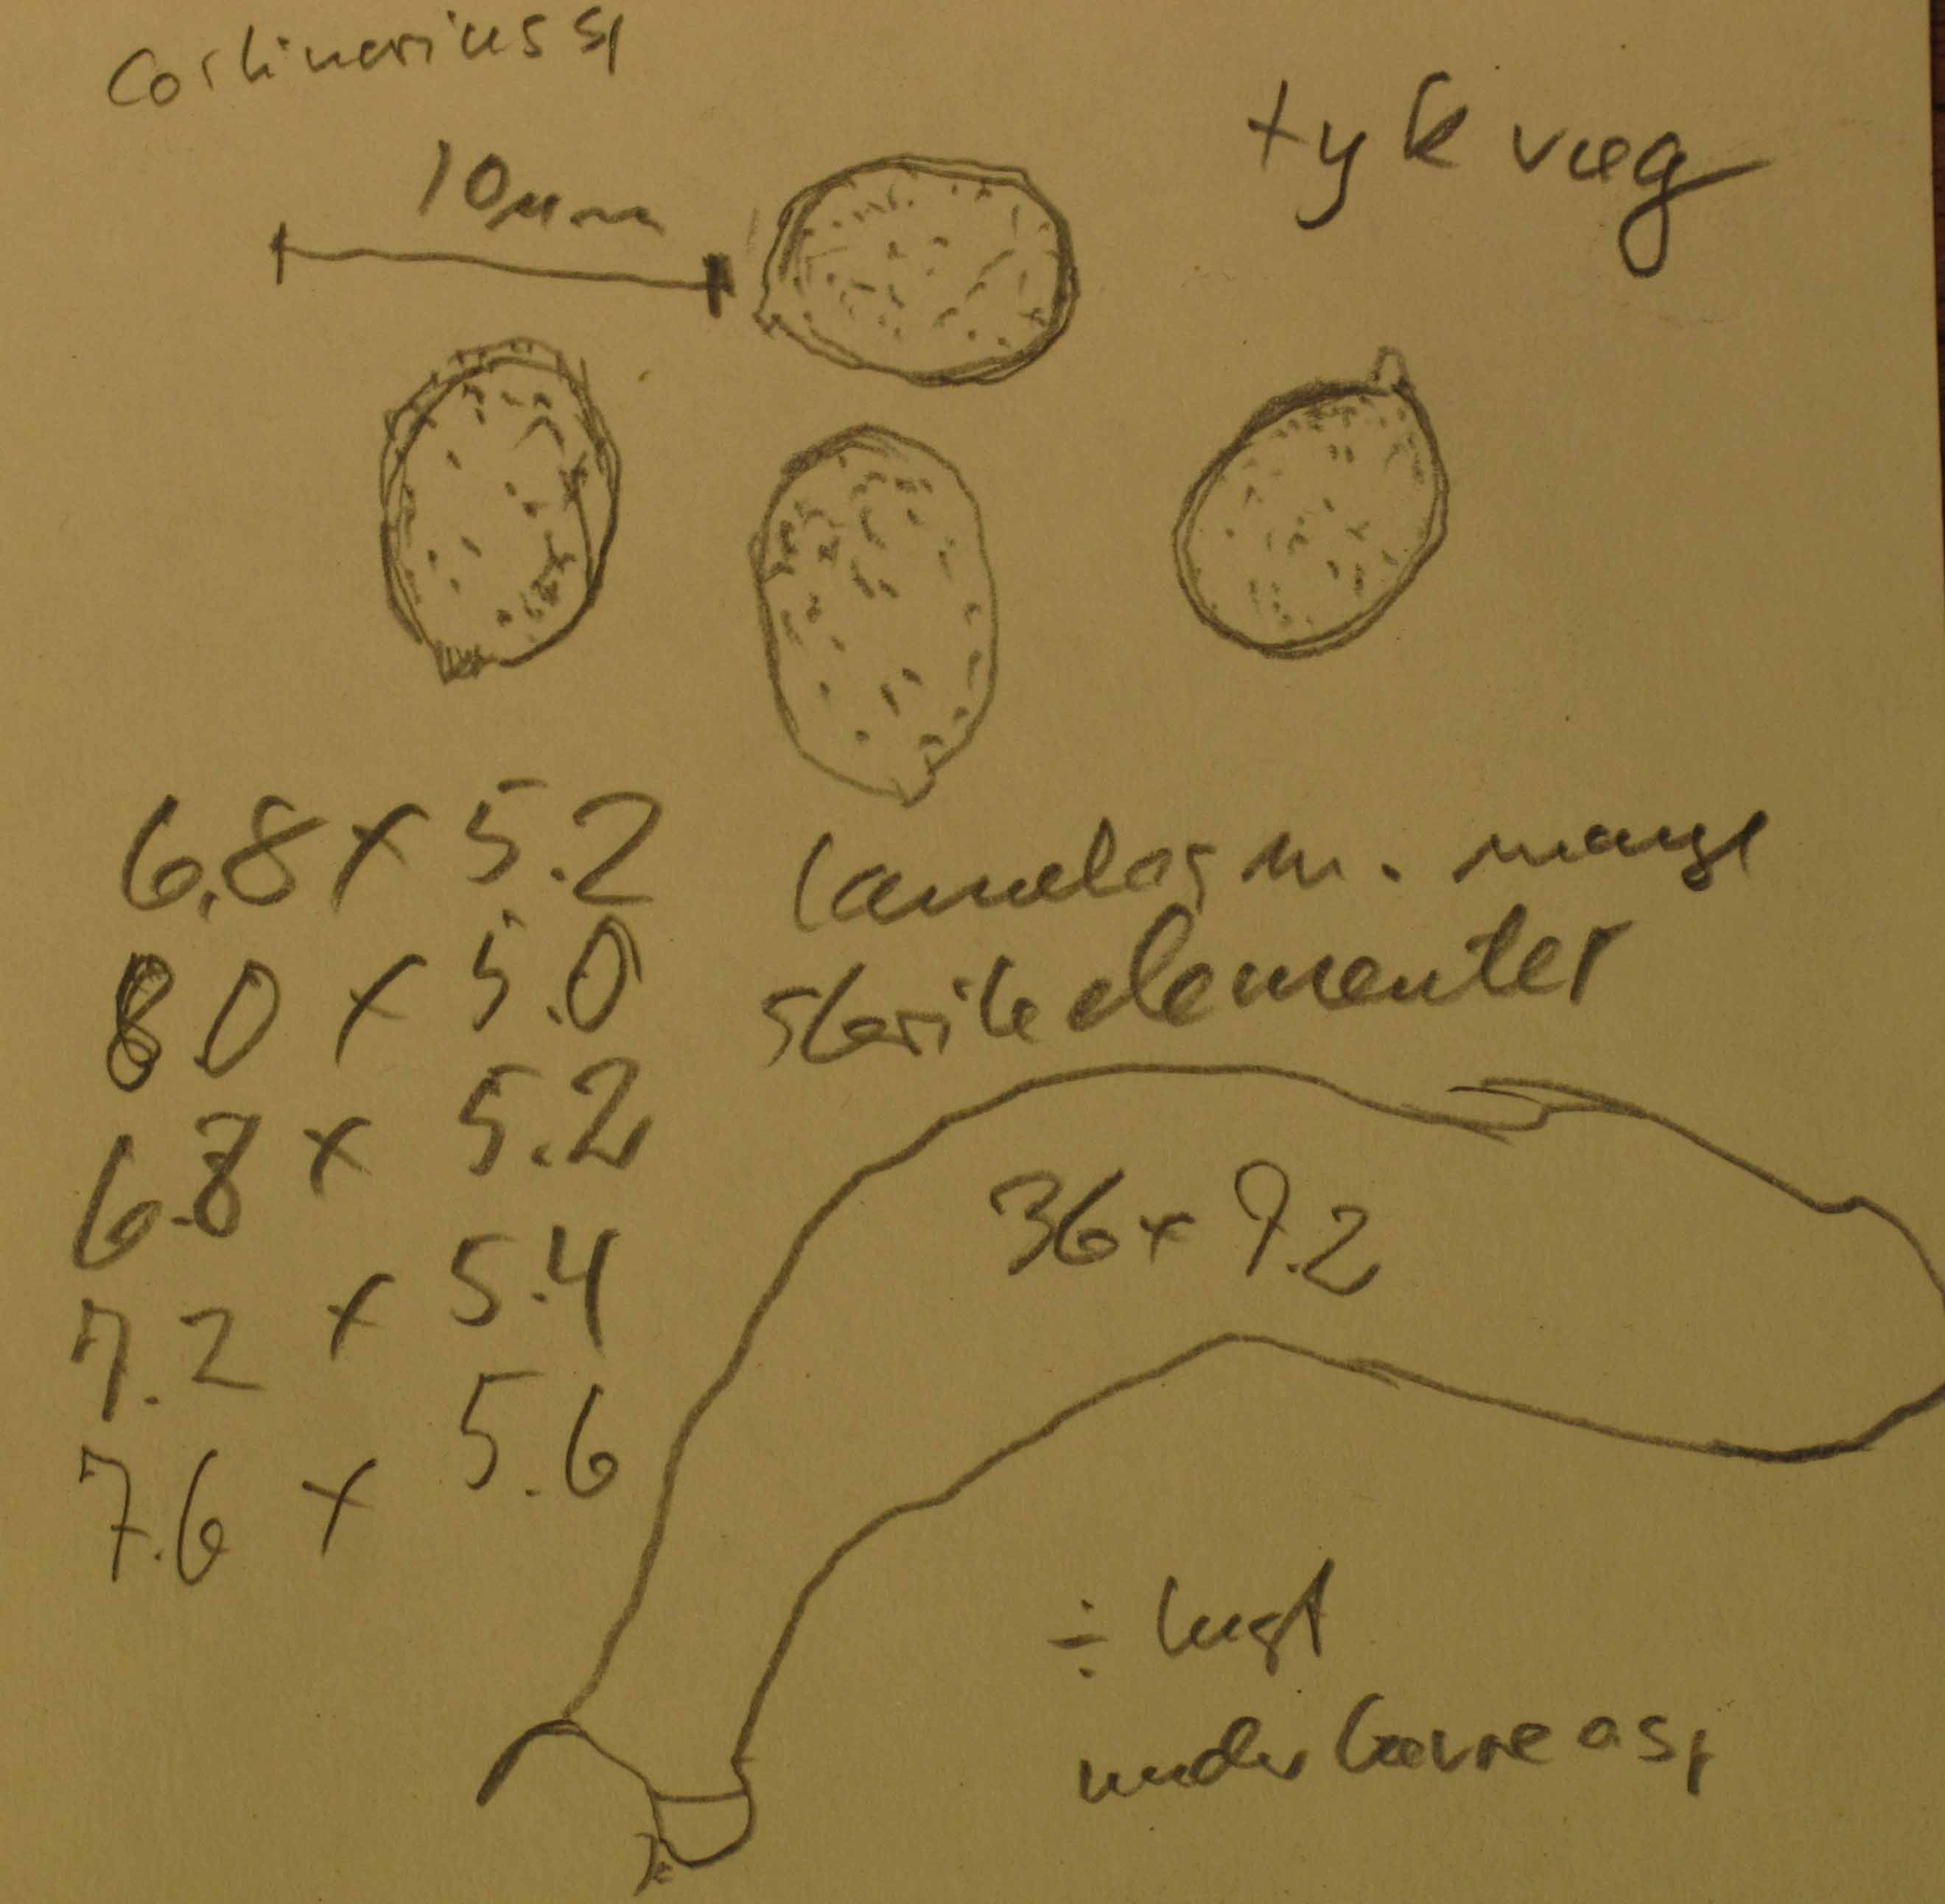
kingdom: Fungi
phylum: Basidiomycota
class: Agaricomycetes
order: Agaricales
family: Cortinariaceae
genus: Cortinarius
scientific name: Cortinarius raphanoides
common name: ræddike-slørhat
